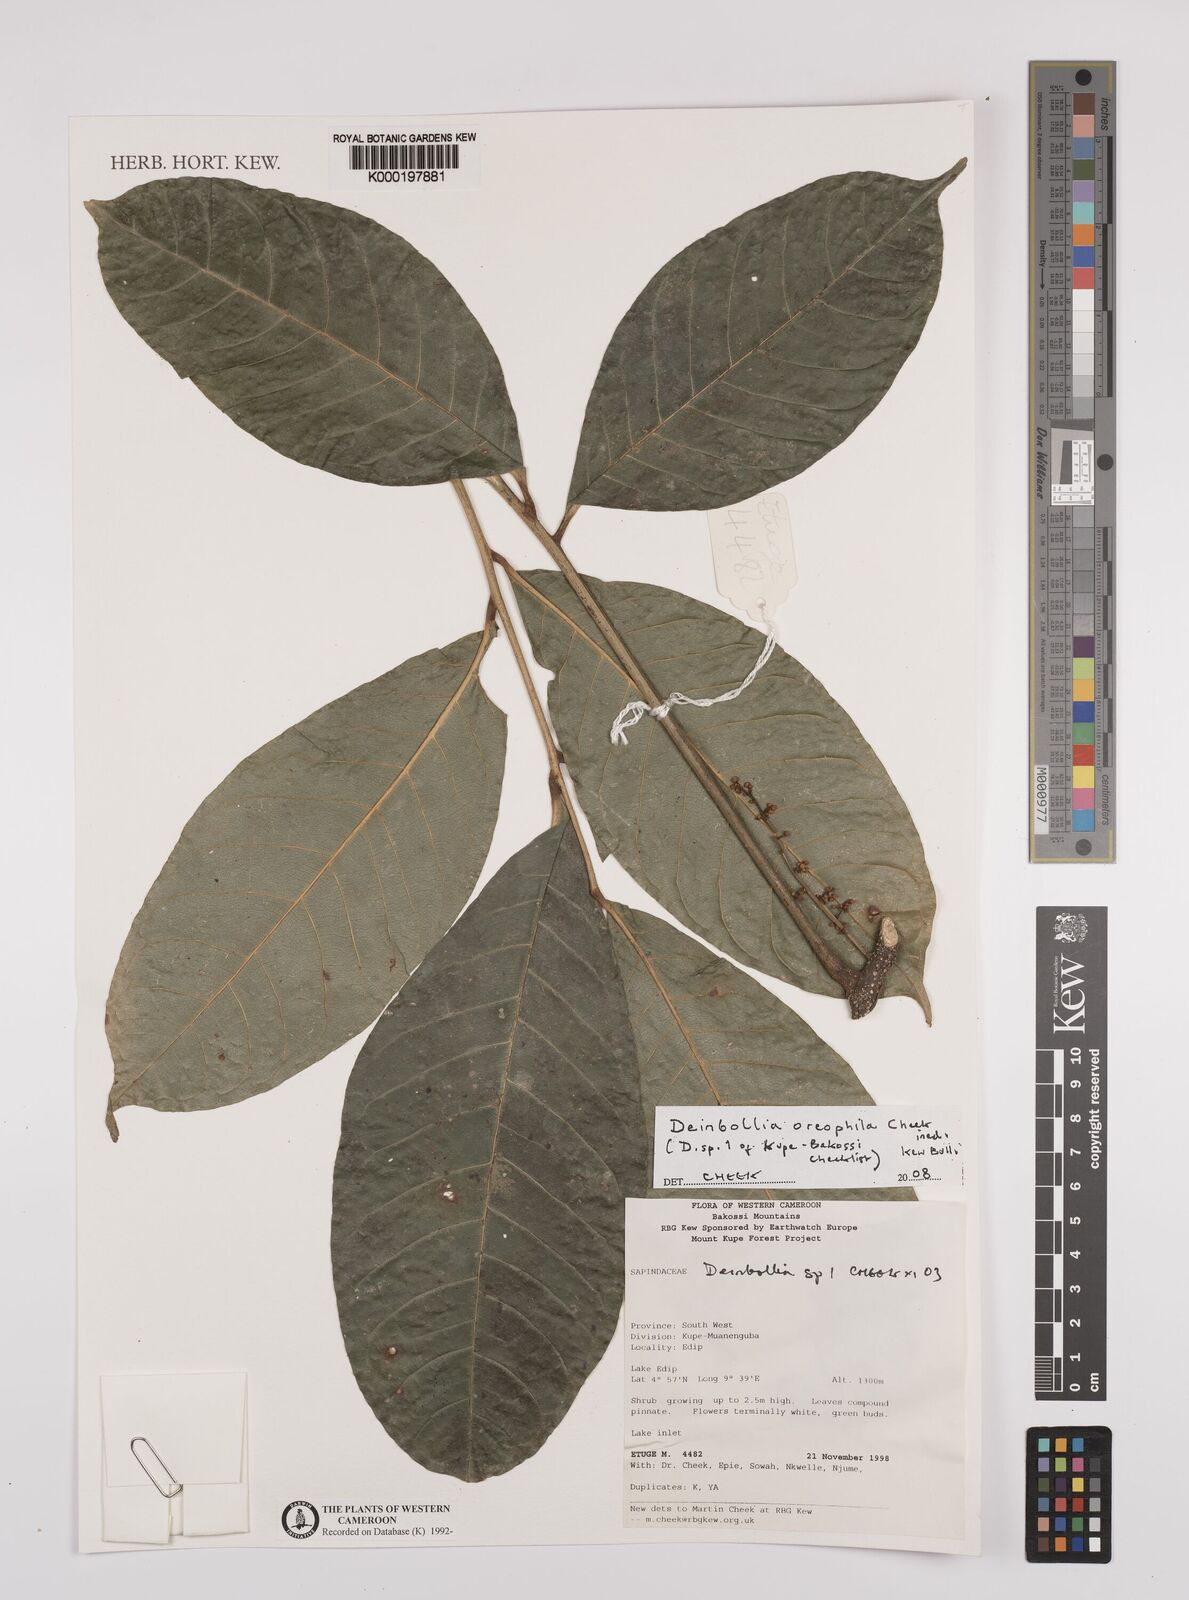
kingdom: Plantae
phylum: Tracheophyta
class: Magnoliopsida
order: Sapindales
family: Sapindaceae
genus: Deinbollia
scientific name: Deinbollia oreophila
